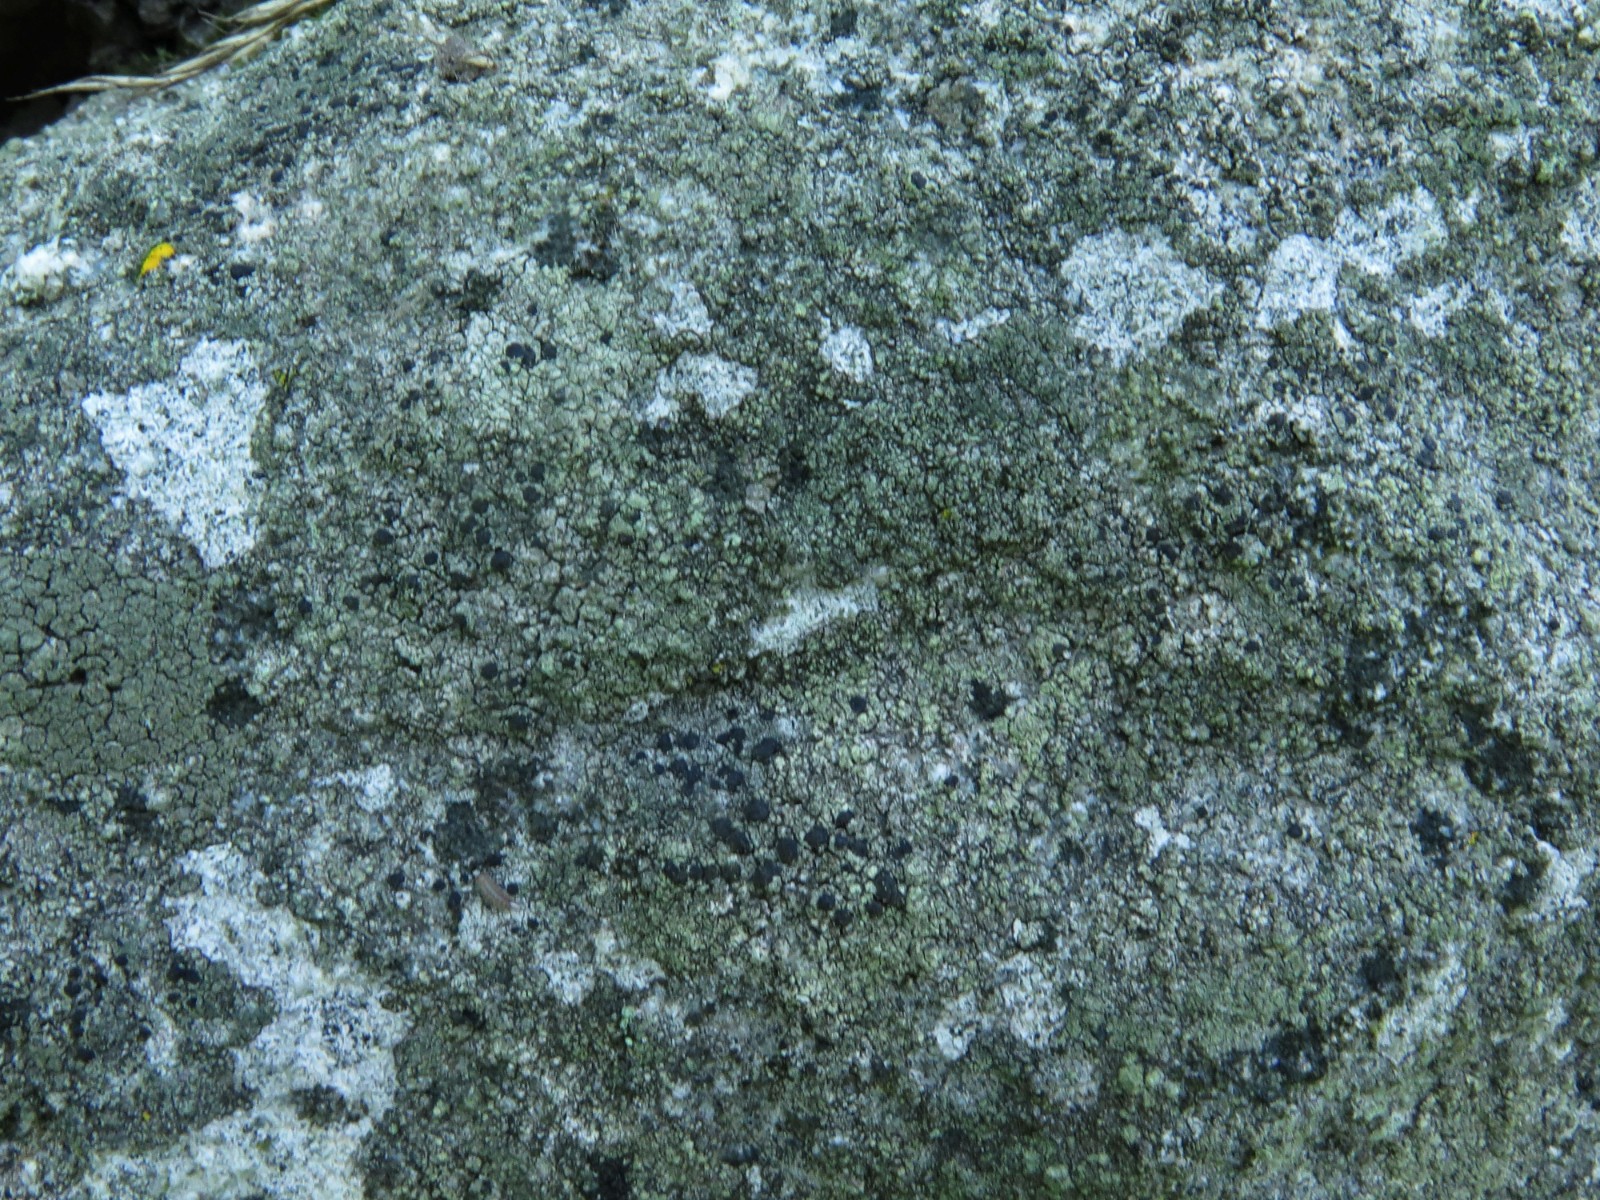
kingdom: Fungi
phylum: Ascomycota
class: Lecanoromycetes
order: Lecanorales
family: Lecanoraceae
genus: Lecidella
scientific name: Lecidella scabra
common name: skurvet skivelav
